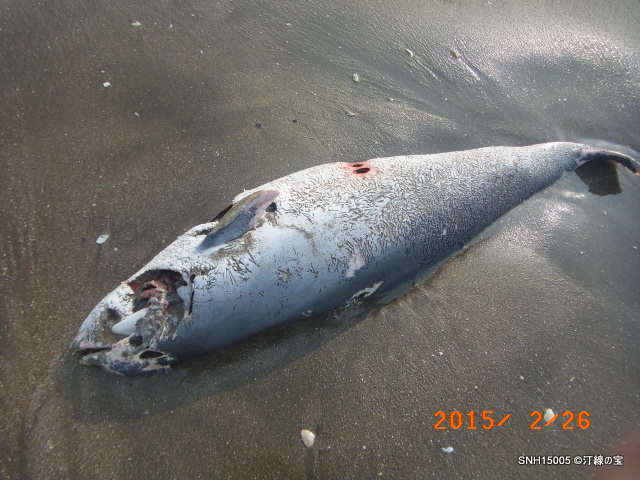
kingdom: Animalia
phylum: Chordata
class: Mammalia
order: Cetacea
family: Phocoenidae
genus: Phocoena
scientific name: Phocoena phocoena
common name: Harbour porpoise
